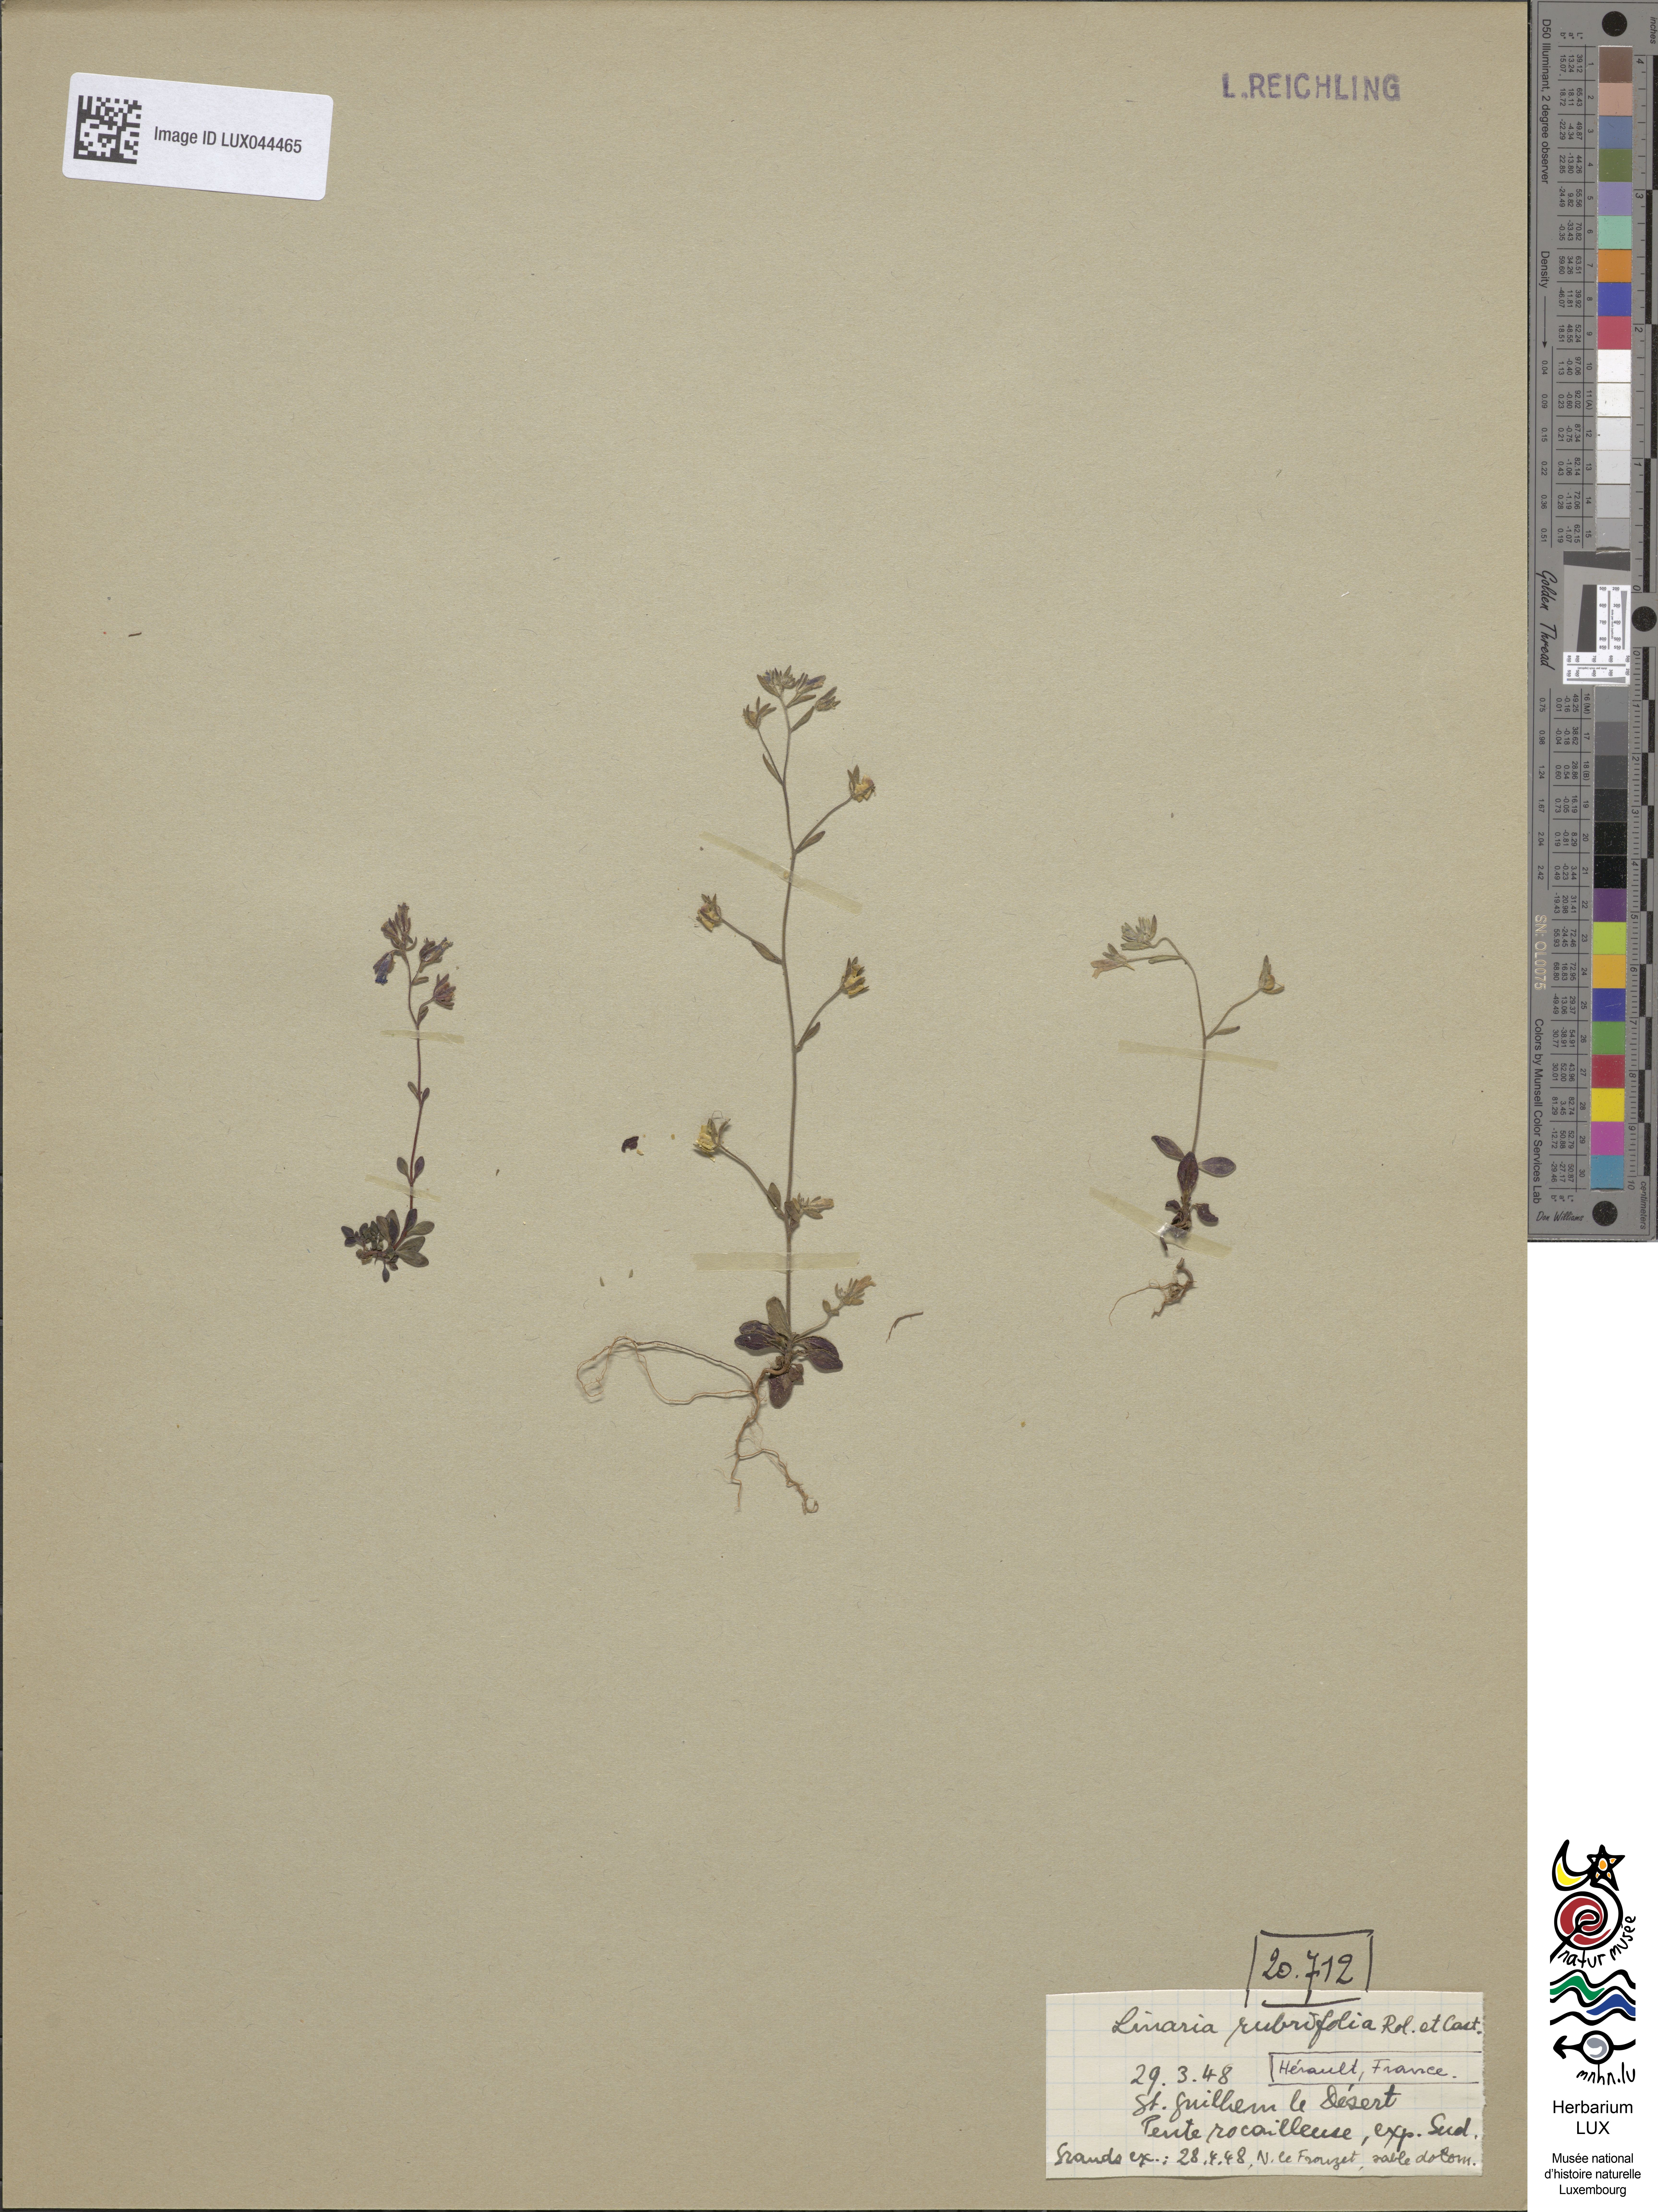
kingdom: Plantae
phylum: Tracheophyta
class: Magnoliopsida
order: Lamiales
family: Plantaginaceae
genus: Chaenorhinum
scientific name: Chaenorhinum rubrifolium
